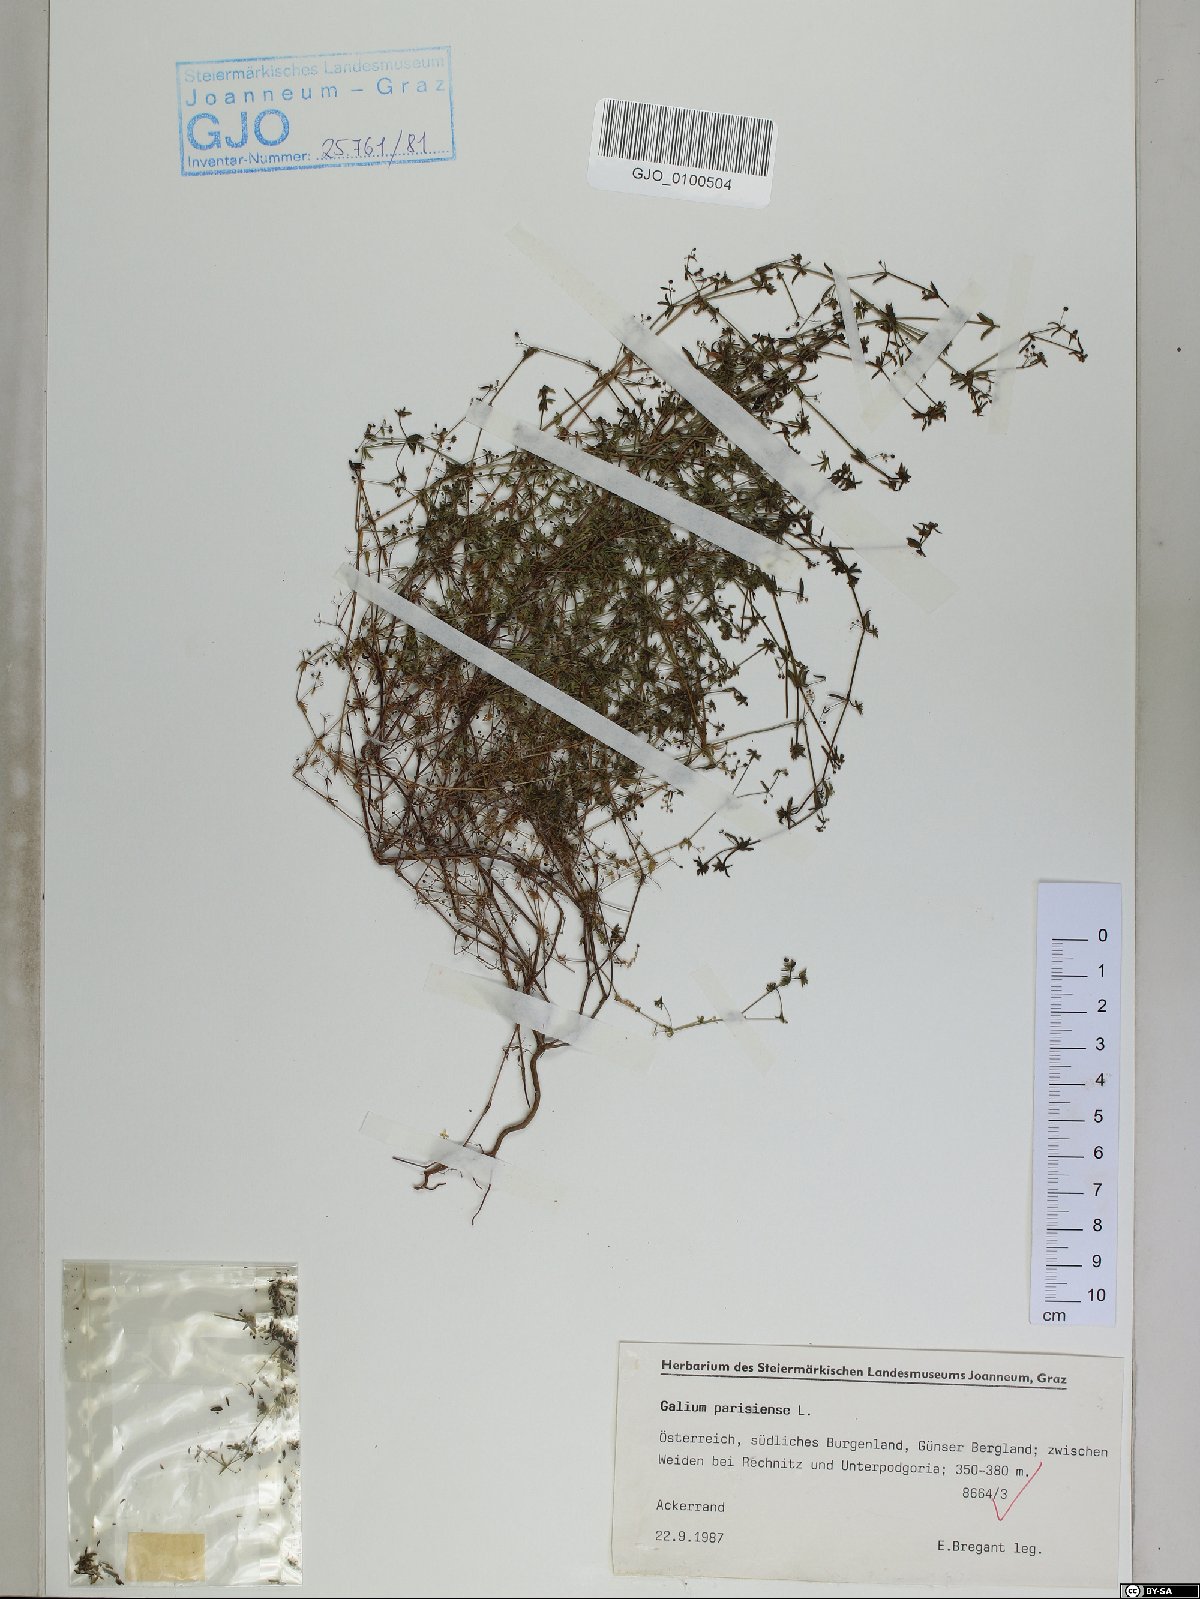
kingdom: Plantae
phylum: Tracheophyta
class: Magnoliopsida
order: Gentianales
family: Rubiaceae
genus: Galium
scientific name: Galium parisiense
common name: Wall bedstraw
